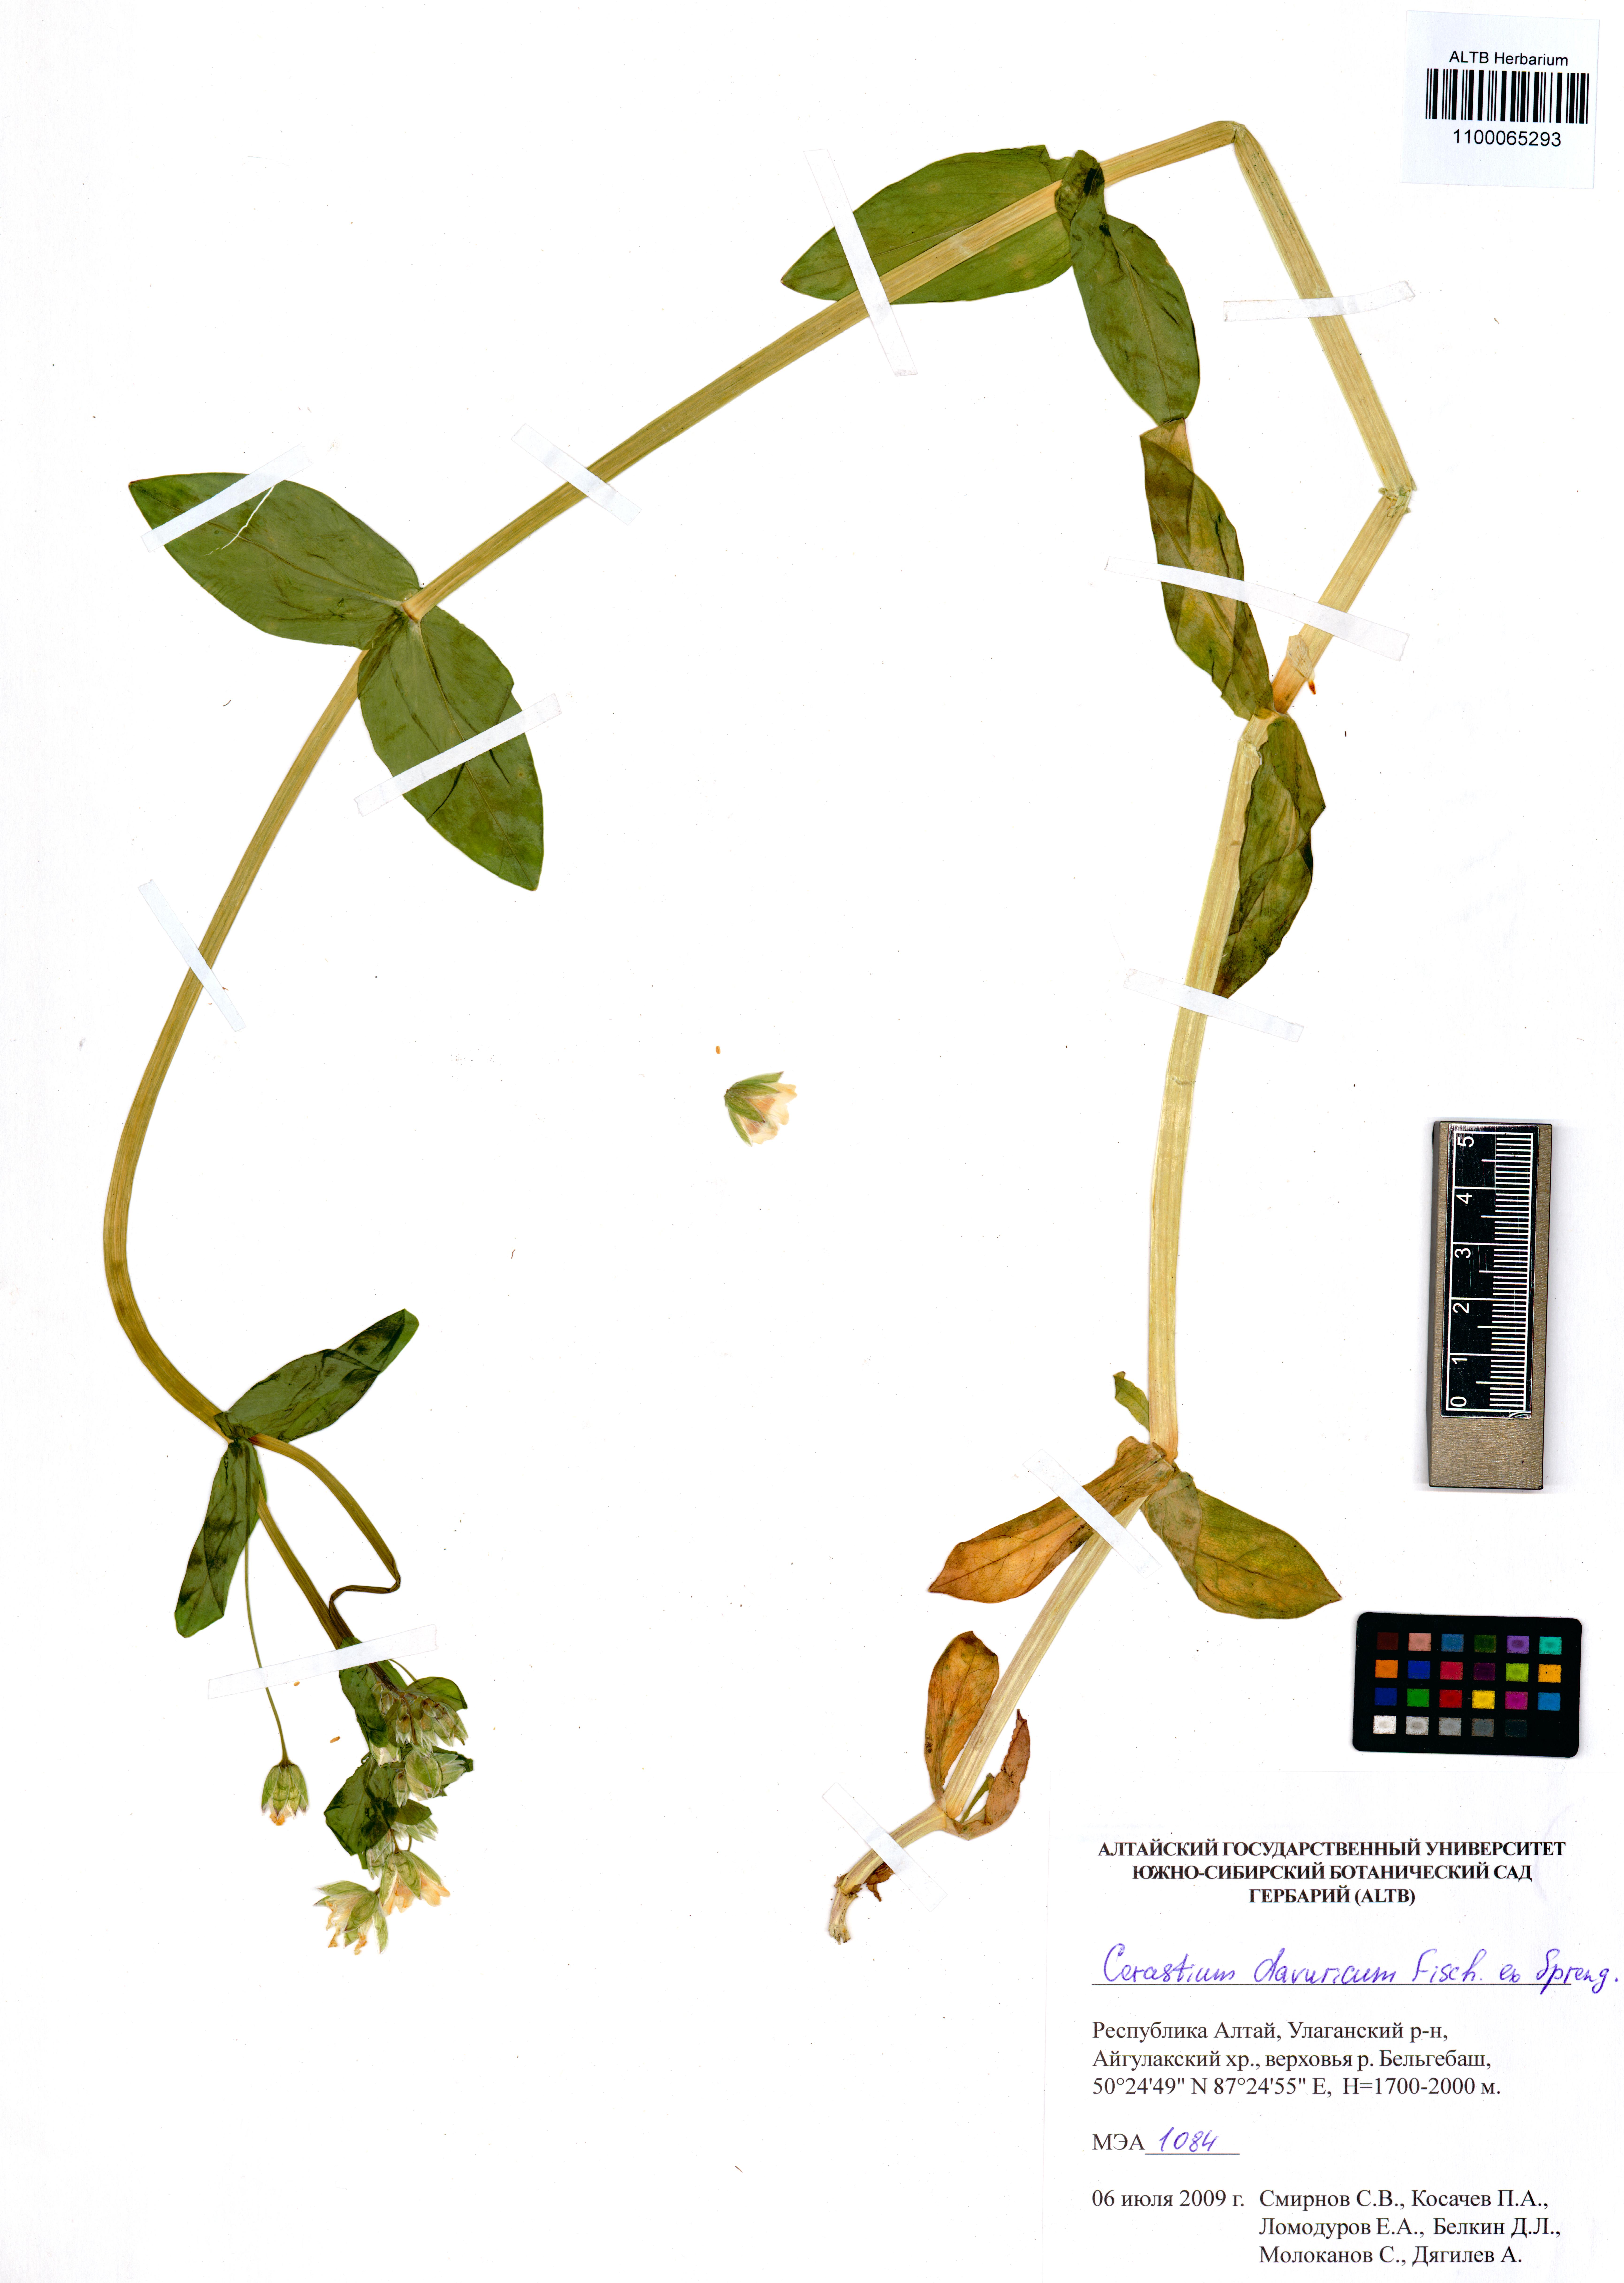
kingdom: Plantae
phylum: Tracheophyta
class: Magnoliopsida
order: Caryophyllales
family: Caryophyllaceae
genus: Dichodon
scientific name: Dichodon davuricum
